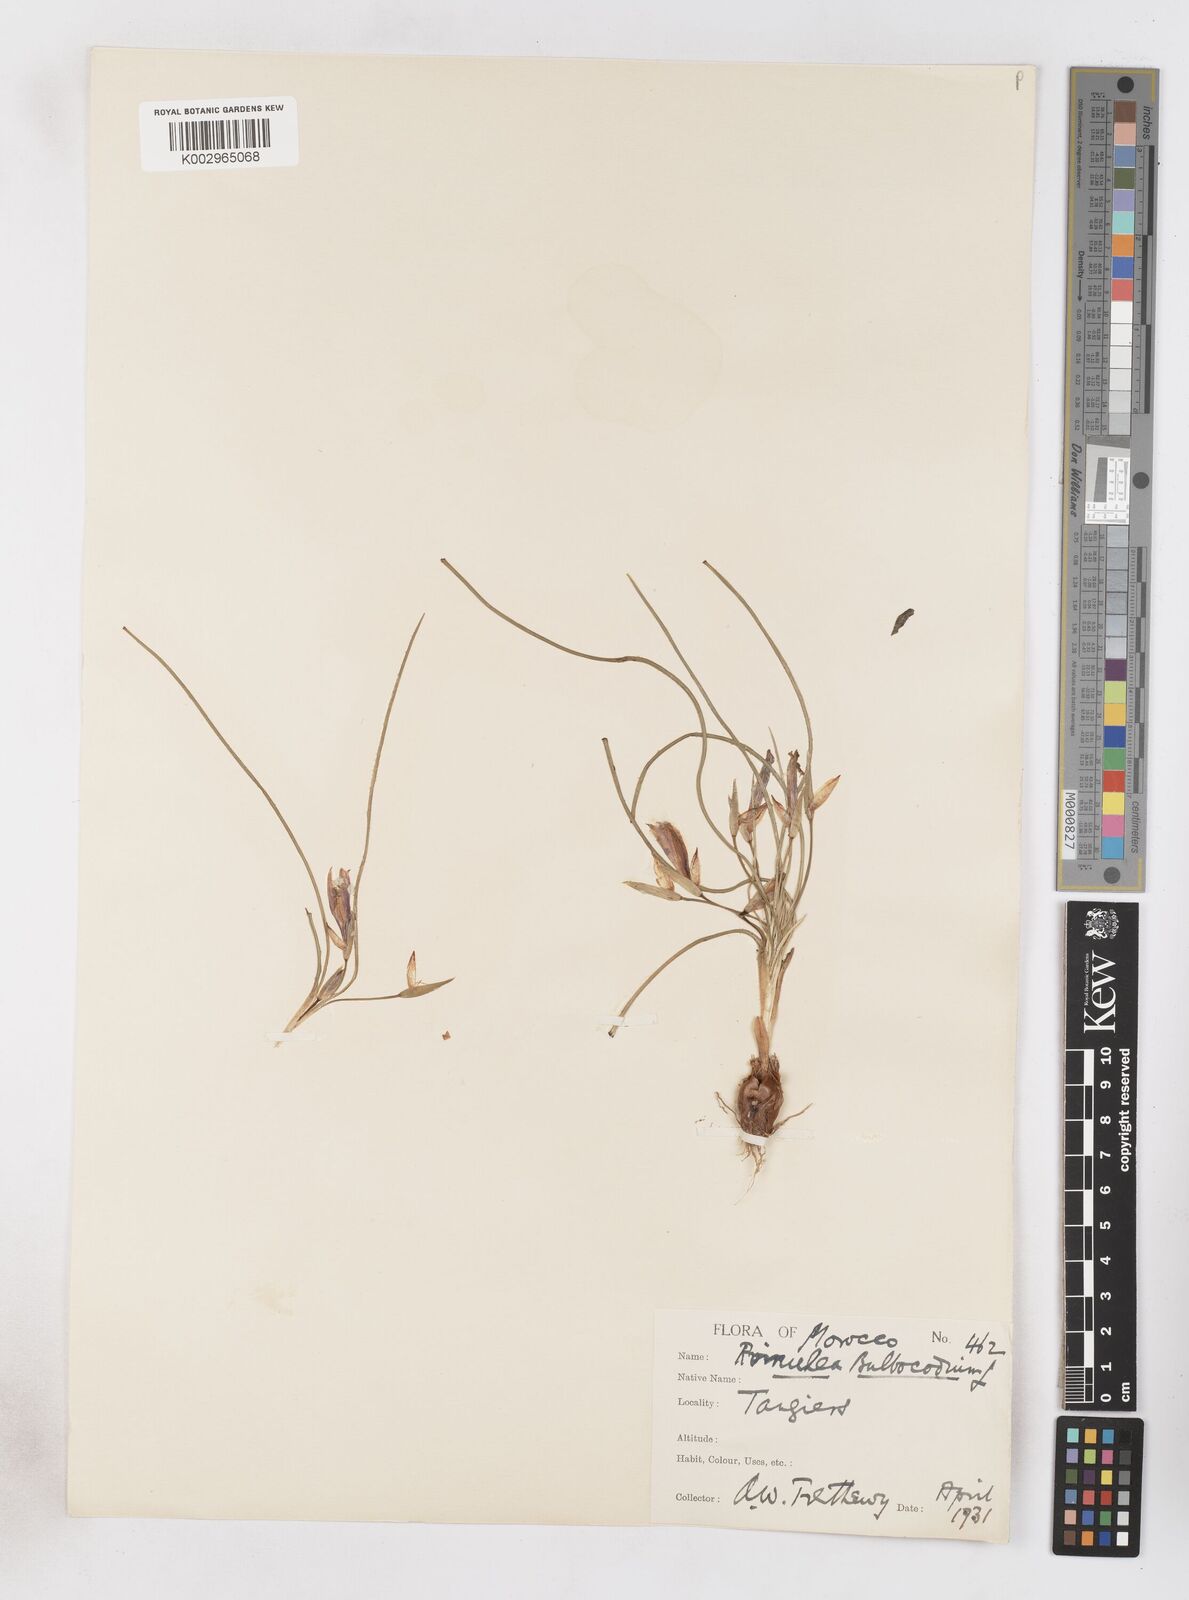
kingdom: Plantae
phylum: Tracheophyta
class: Liliopsida
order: Asparagales
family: Iridaceae
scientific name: Iridaceae
